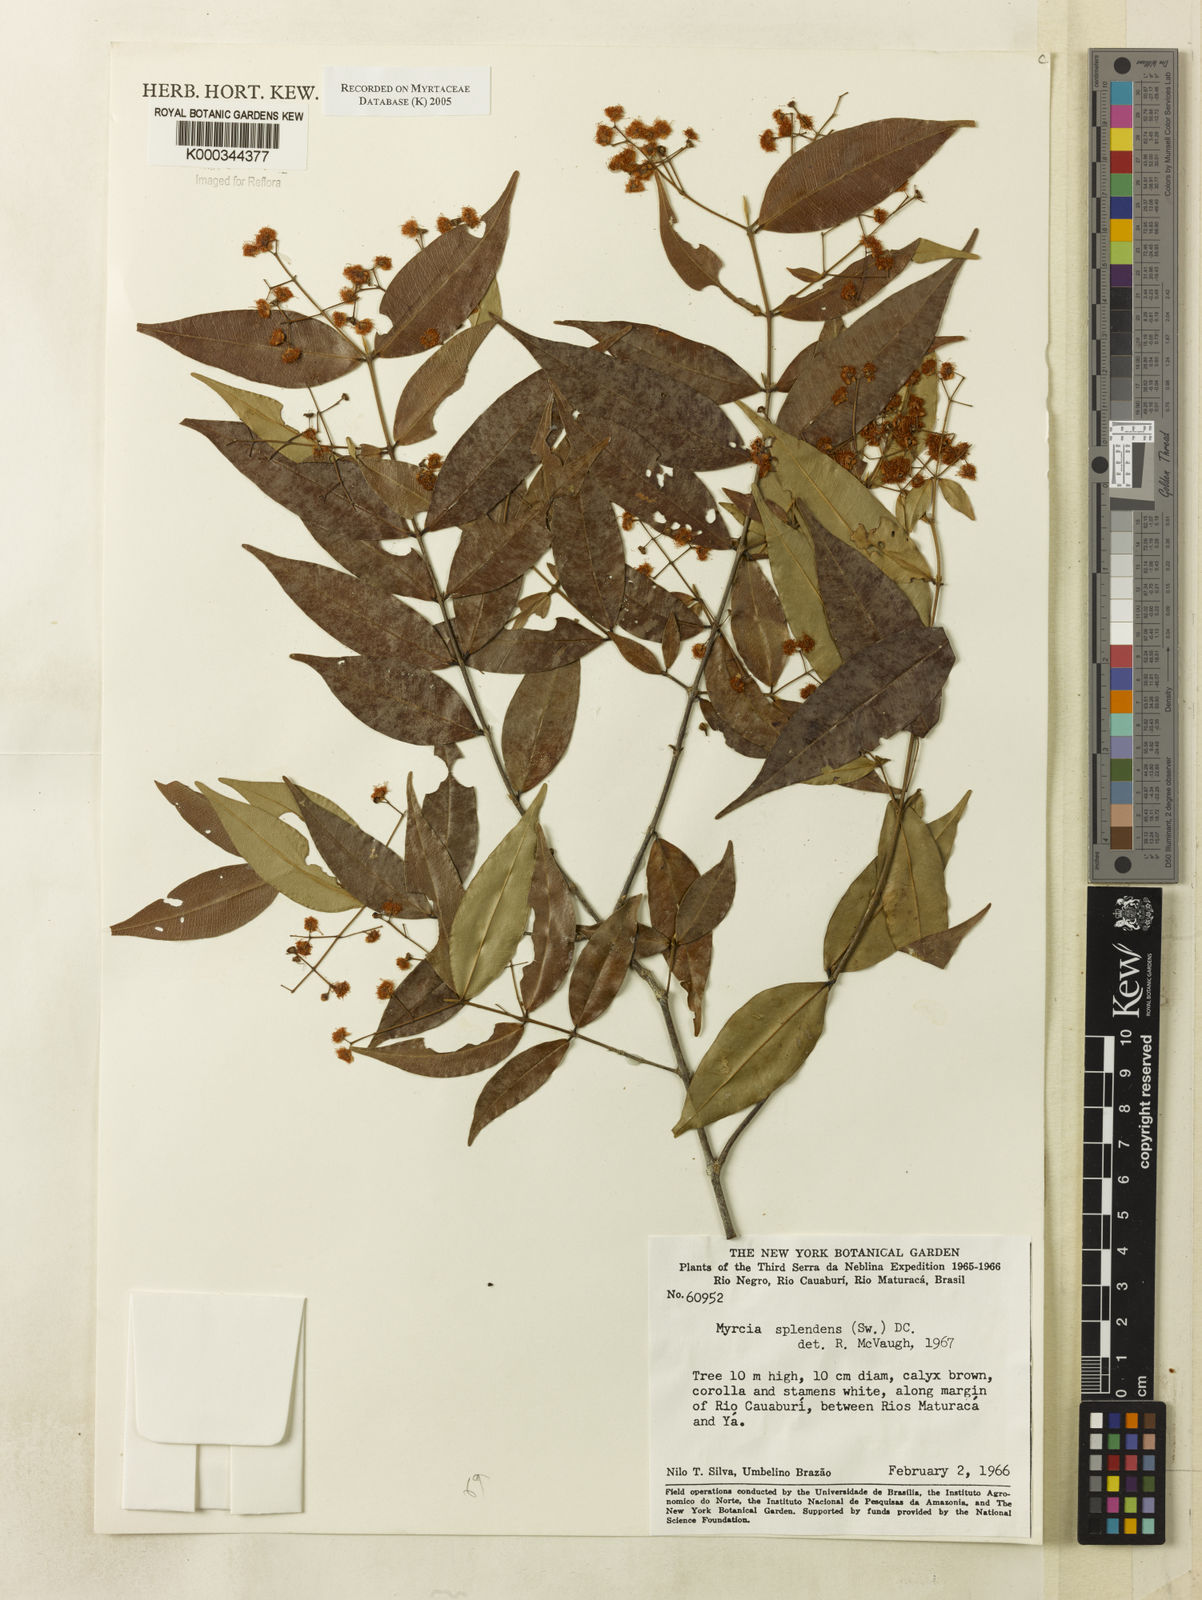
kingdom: Plantae
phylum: Tracheophyta
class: Magnoliopsida
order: Myrtales
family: Myrtaceae
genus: Myrcia
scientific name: Myrcia splendens
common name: Surinam cherry
